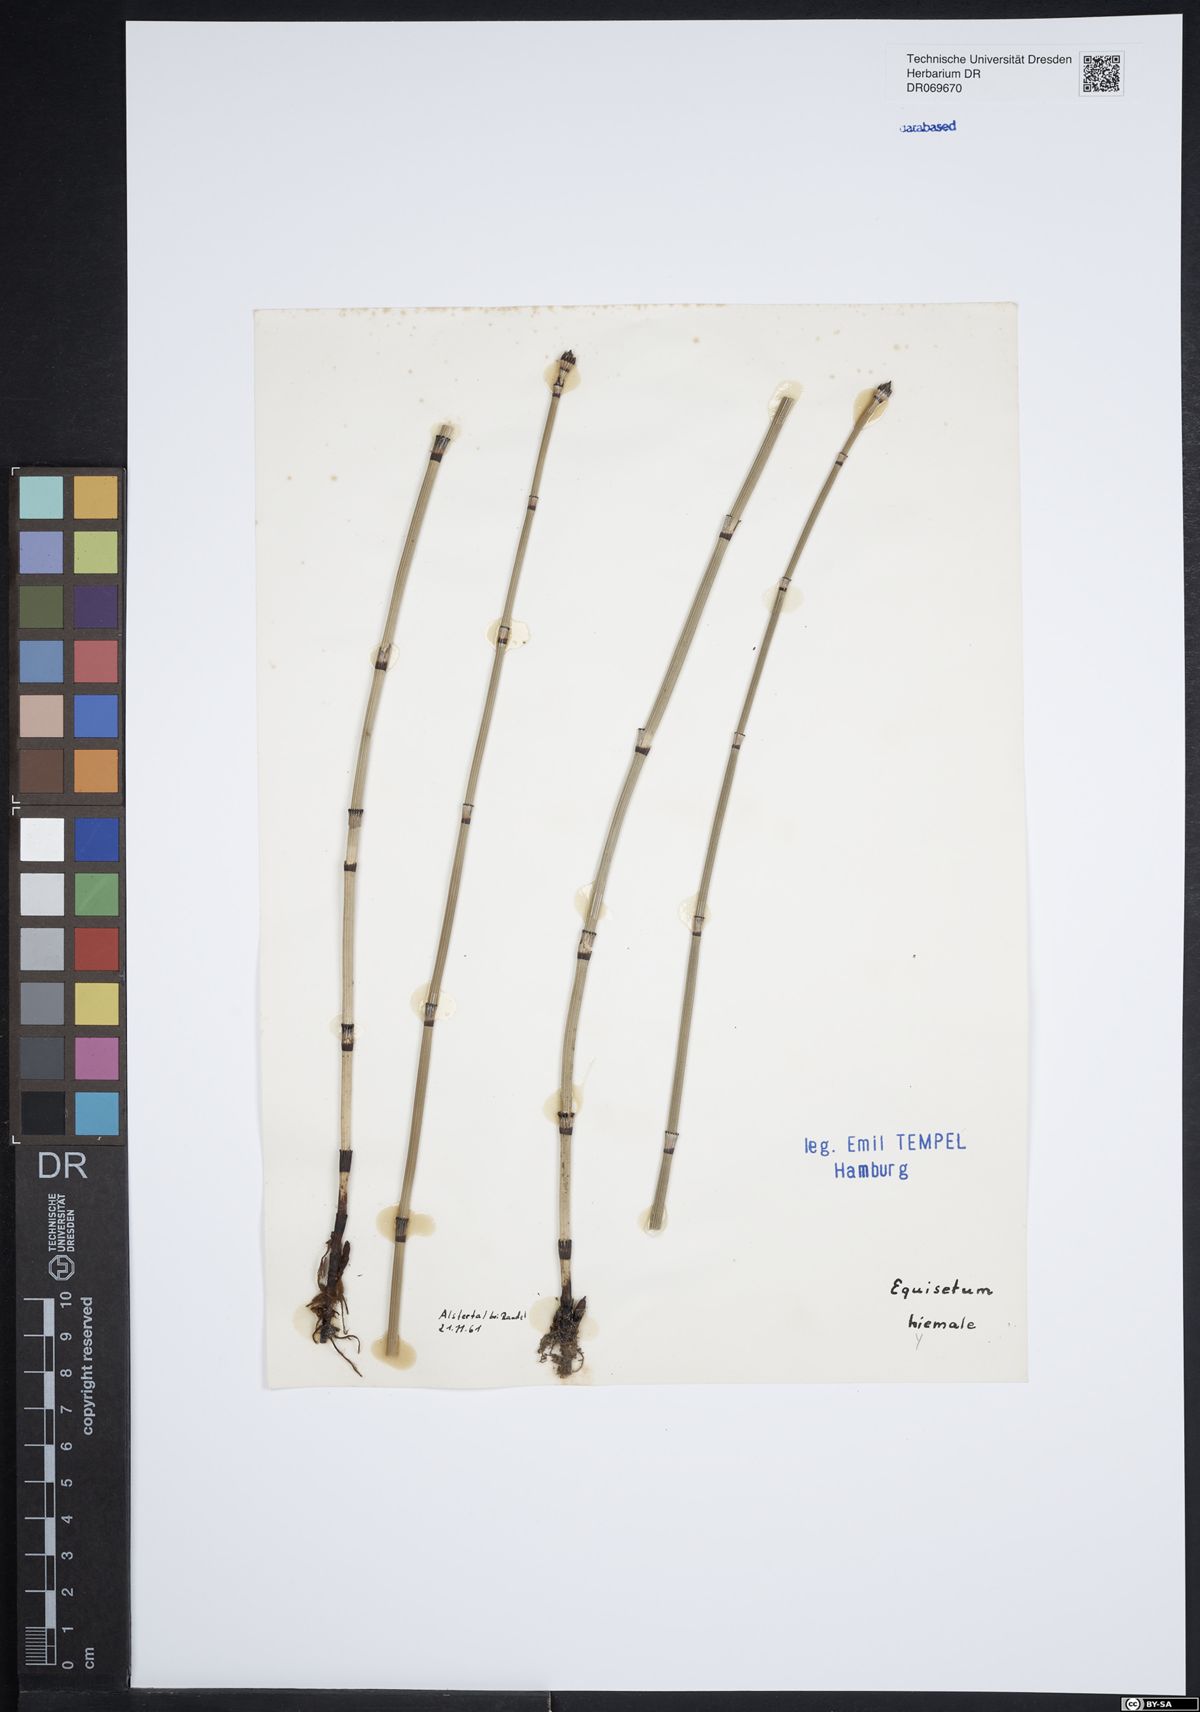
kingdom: Plantae
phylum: Tracheophyta
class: Polypodiopsida
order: Equisetales
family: Equisetaceae
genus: Equisetum
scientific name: Equisetum hyemale
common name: Rough horsetail
